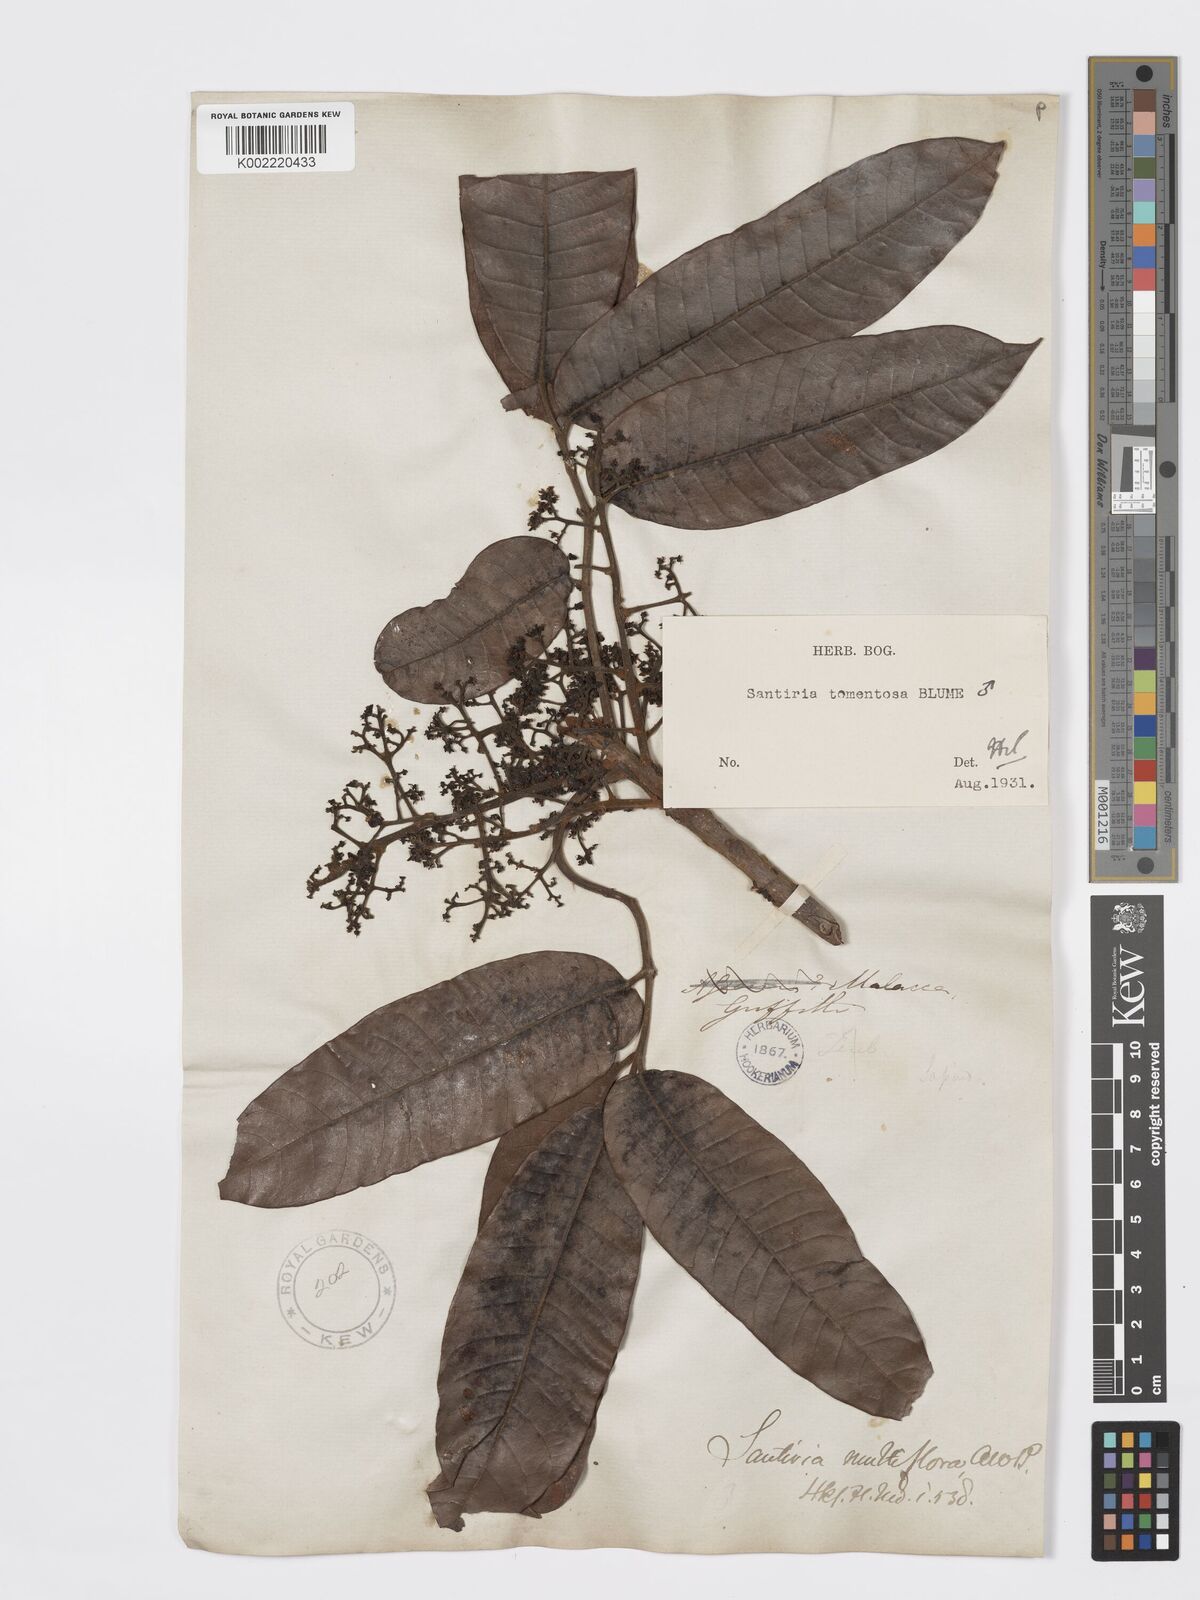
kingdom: Plantae
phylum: Tracheophyta
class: Magnoliopsida
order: Sapindales
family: Burseraceae
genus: Santiria
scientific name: Santiria tomentosa
